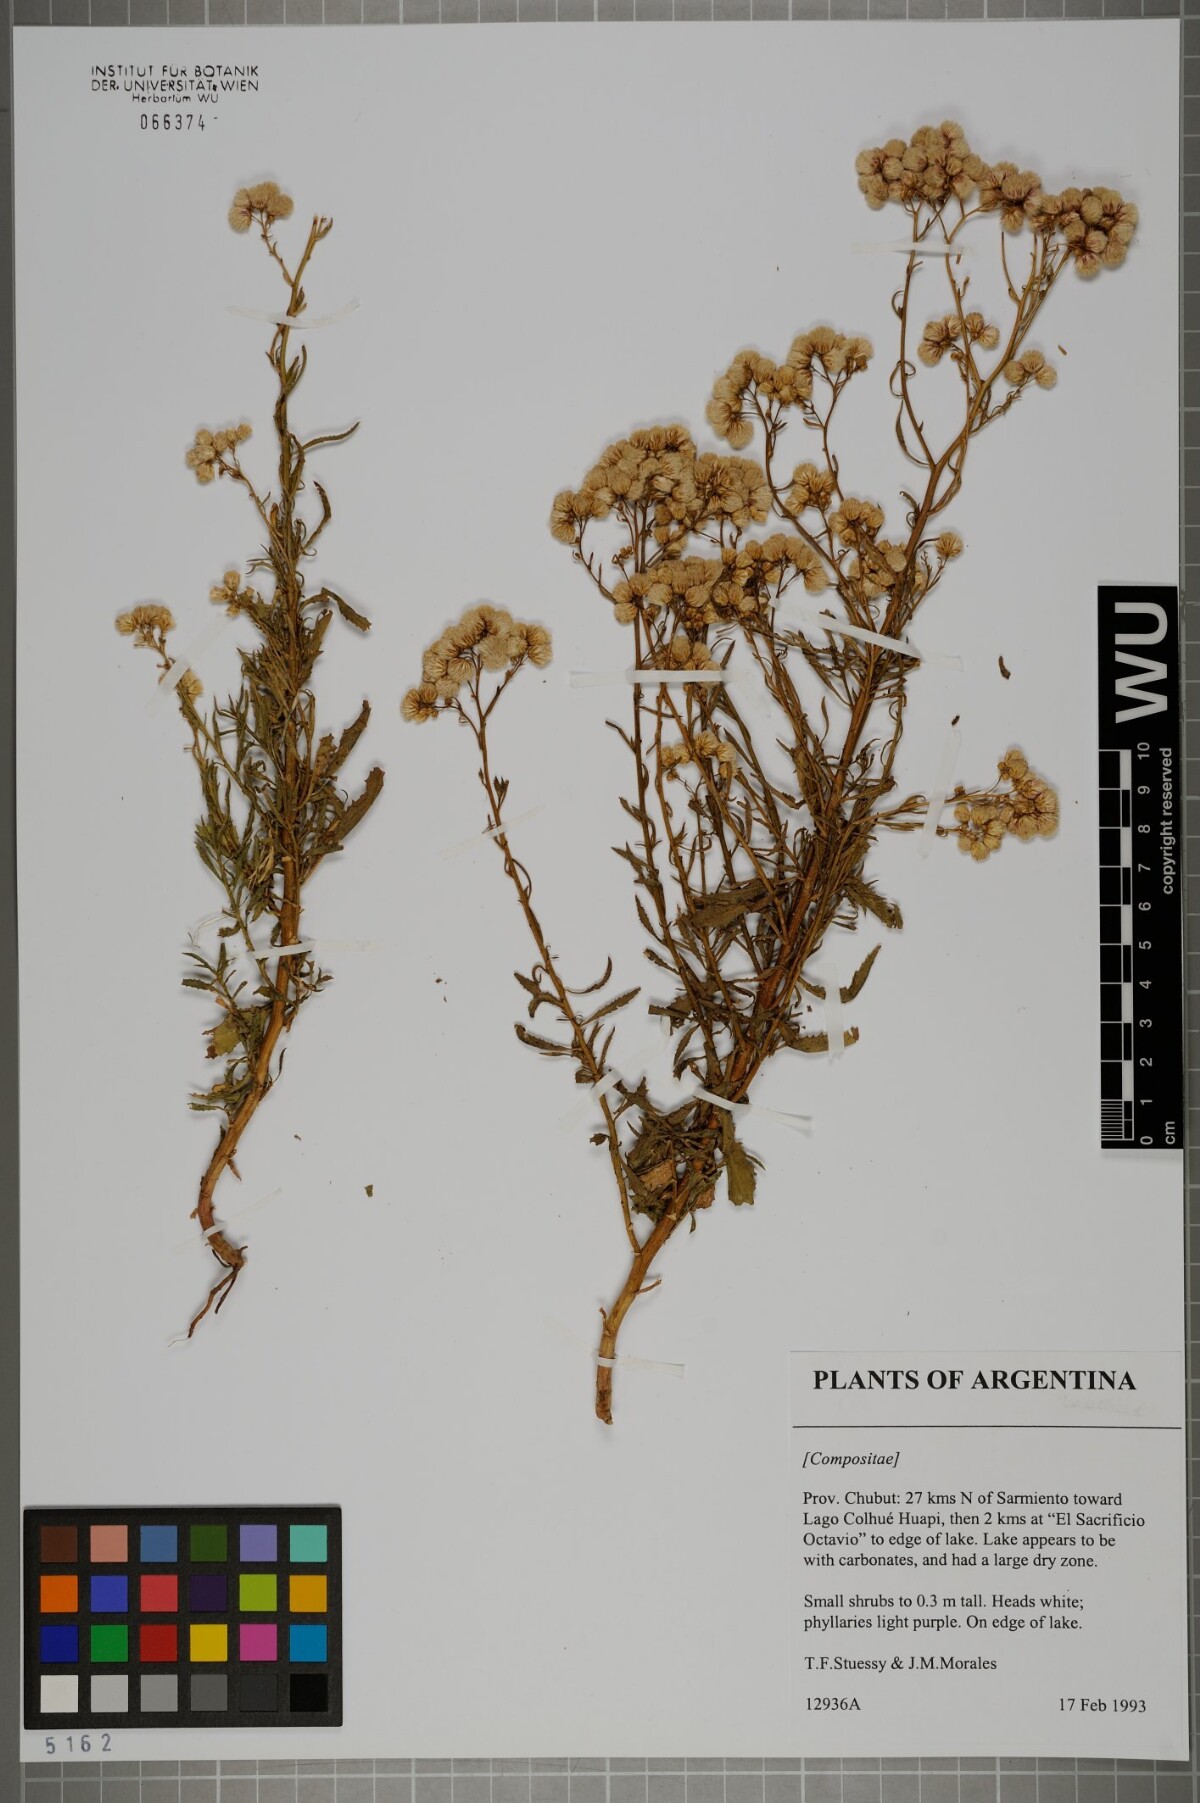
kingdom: Plantae
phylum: Tracheophyta
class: Magnoliopsida
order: Asterales
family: Asteraceae
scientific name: Asteraceae
